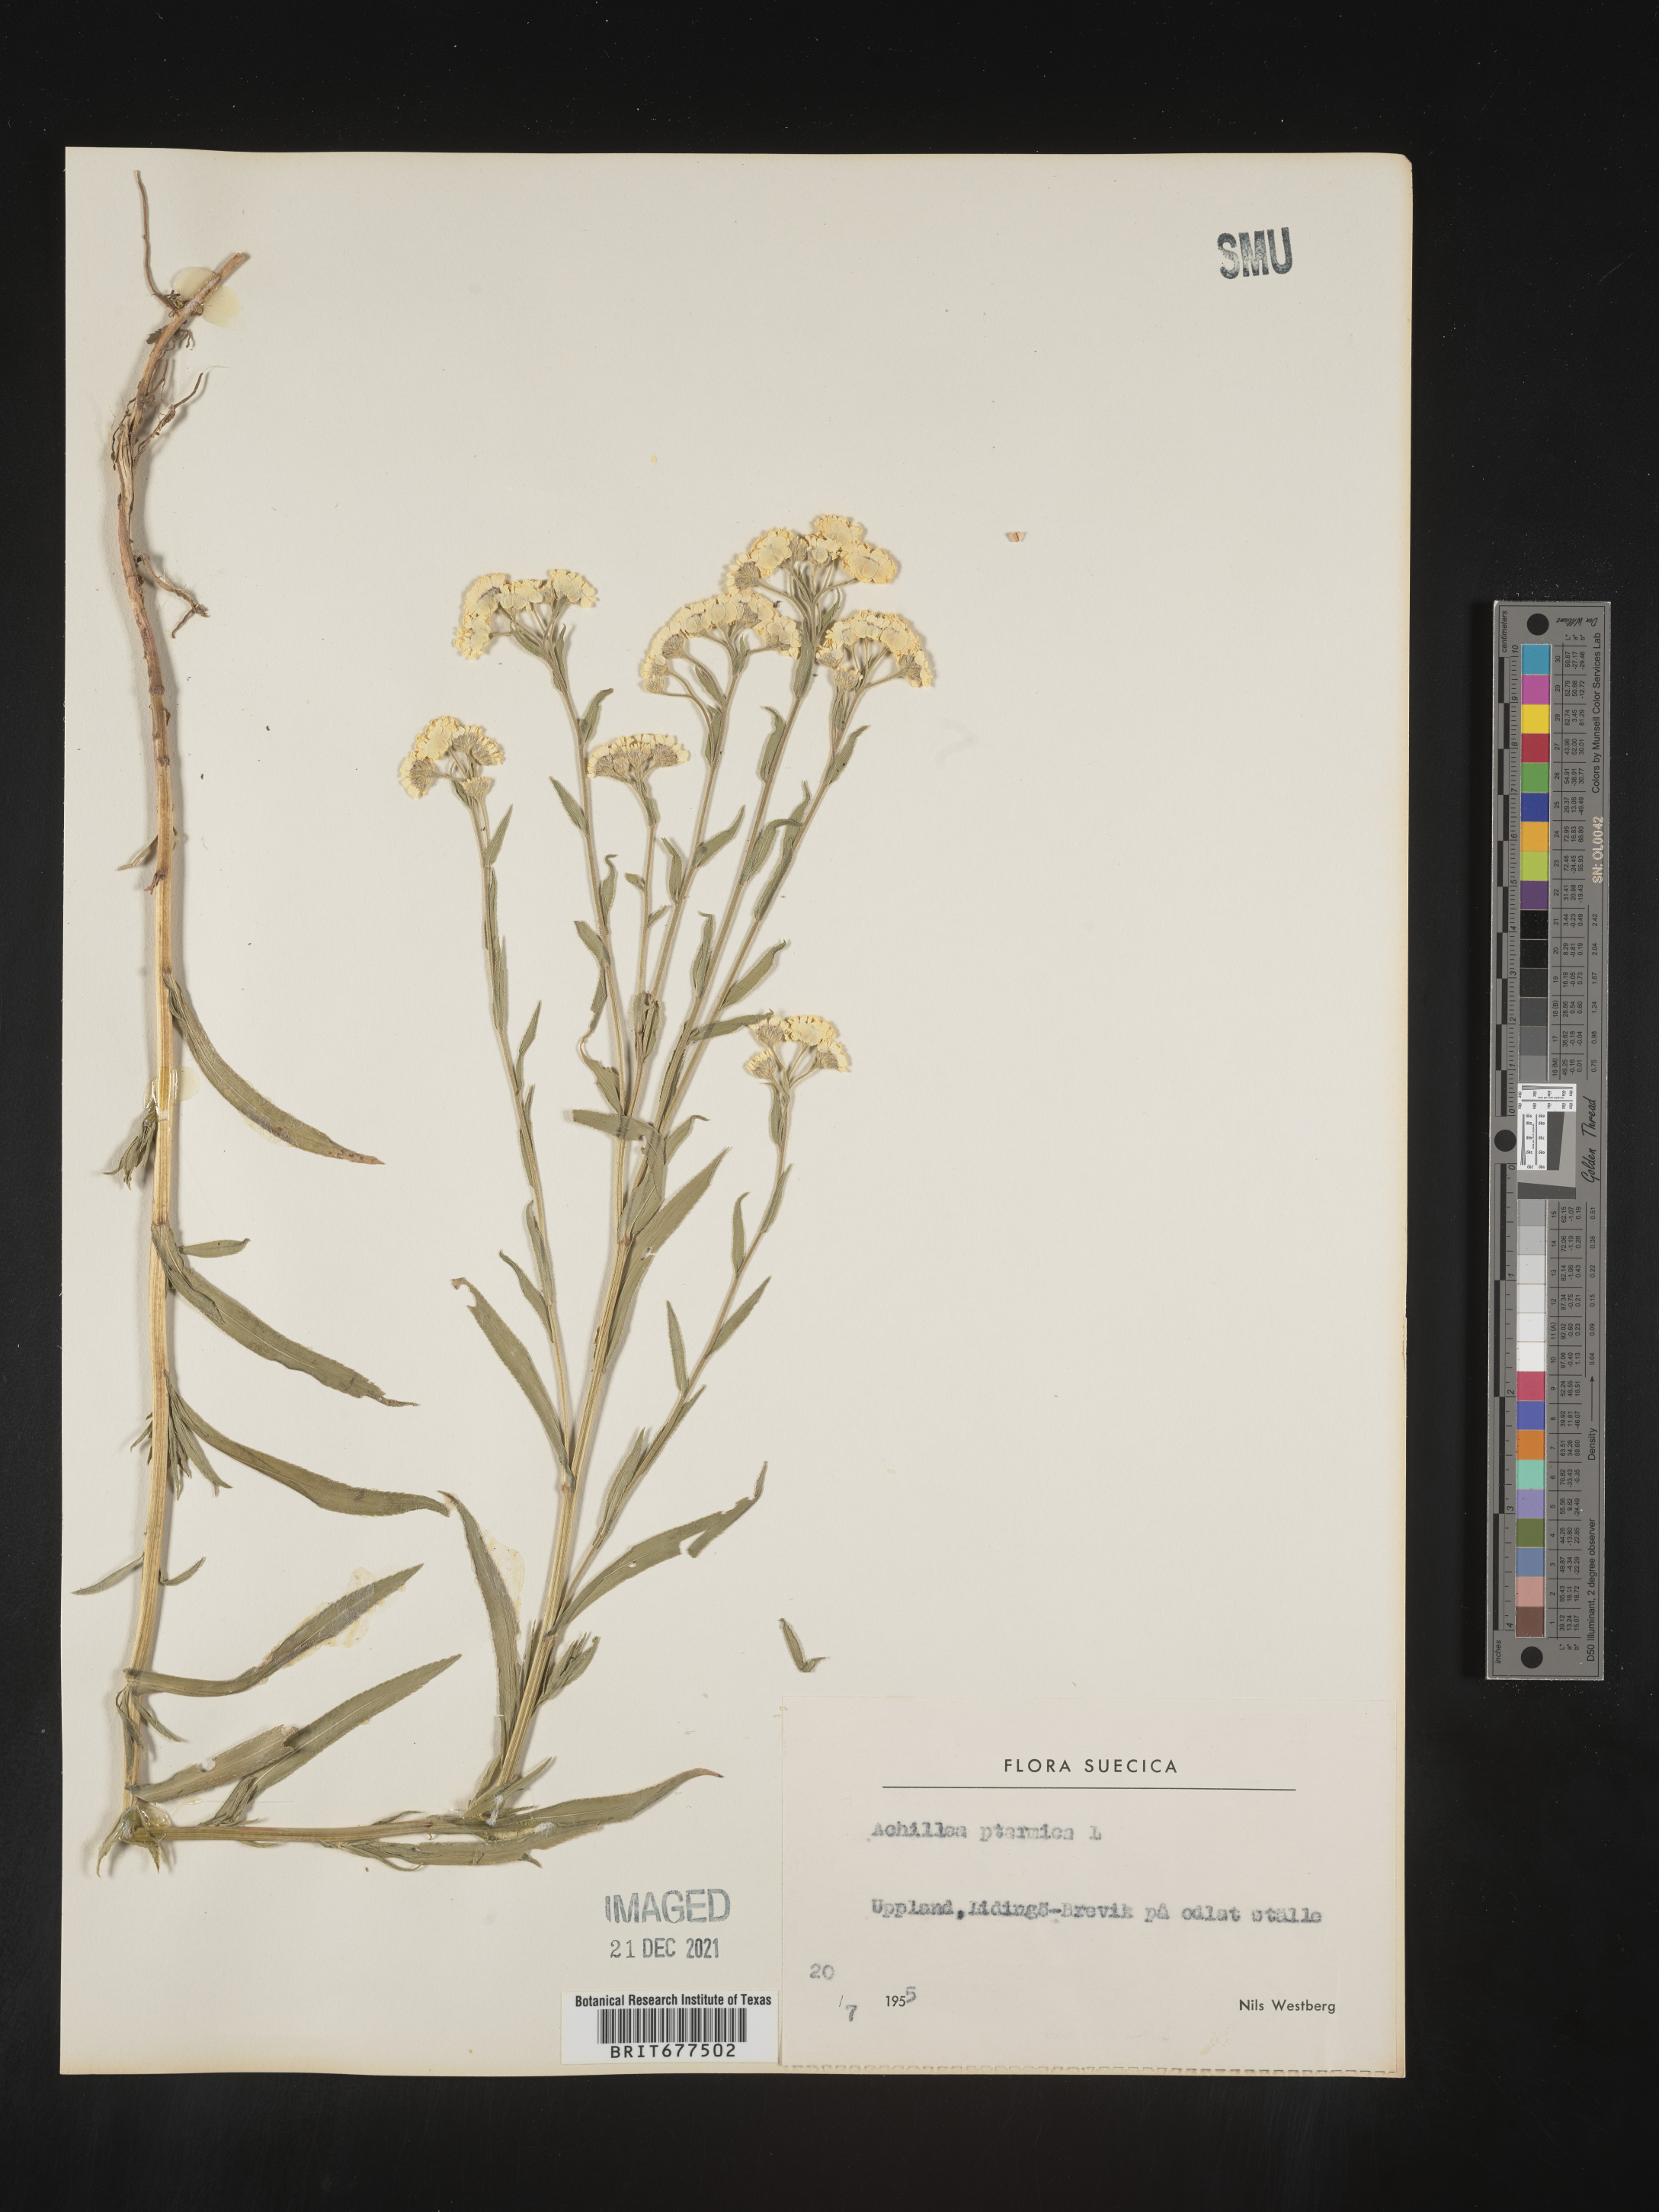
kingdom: Plantae
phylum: Tracheophyta
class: Magnoliopsida
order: Asterales
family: Asteraceae
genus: Achillea
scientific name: Achillea ptarmica
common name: Sneezeweed
